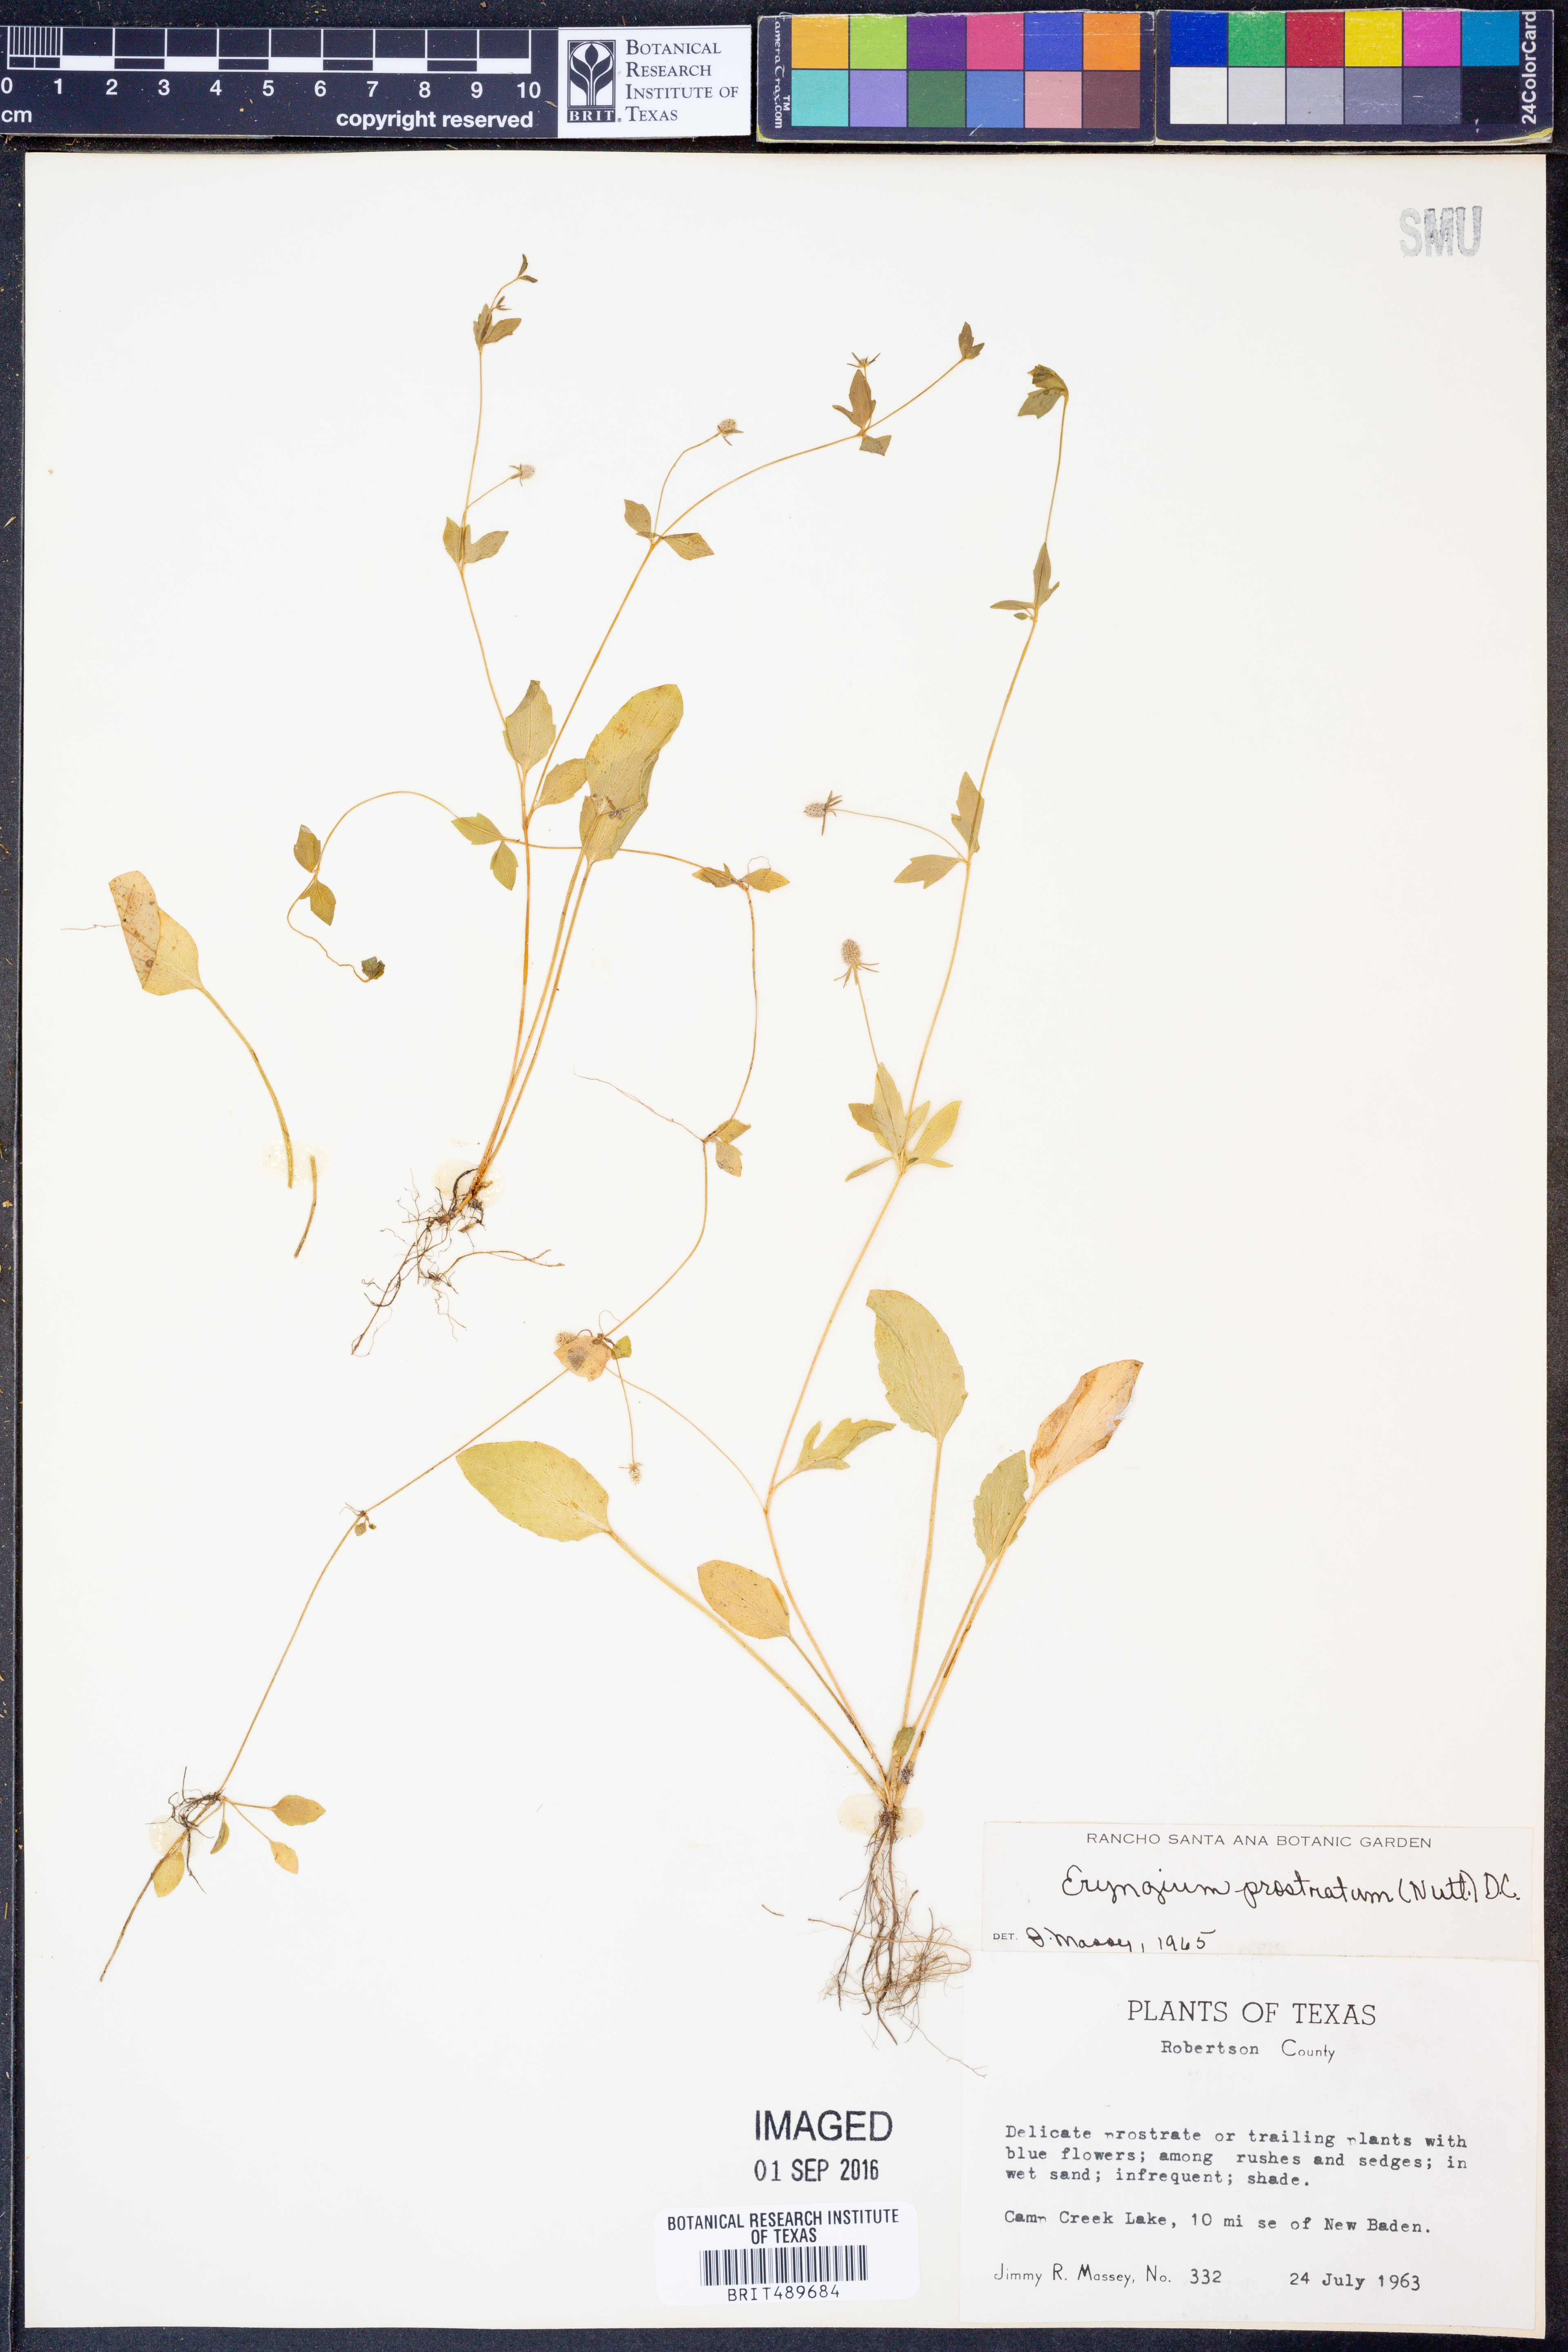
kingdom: Plantae
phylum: Tracheophyta
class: Magnoliopsida
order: Apiales
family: Apiaceae
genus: Eryngium
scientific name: Eryngium prostratum
